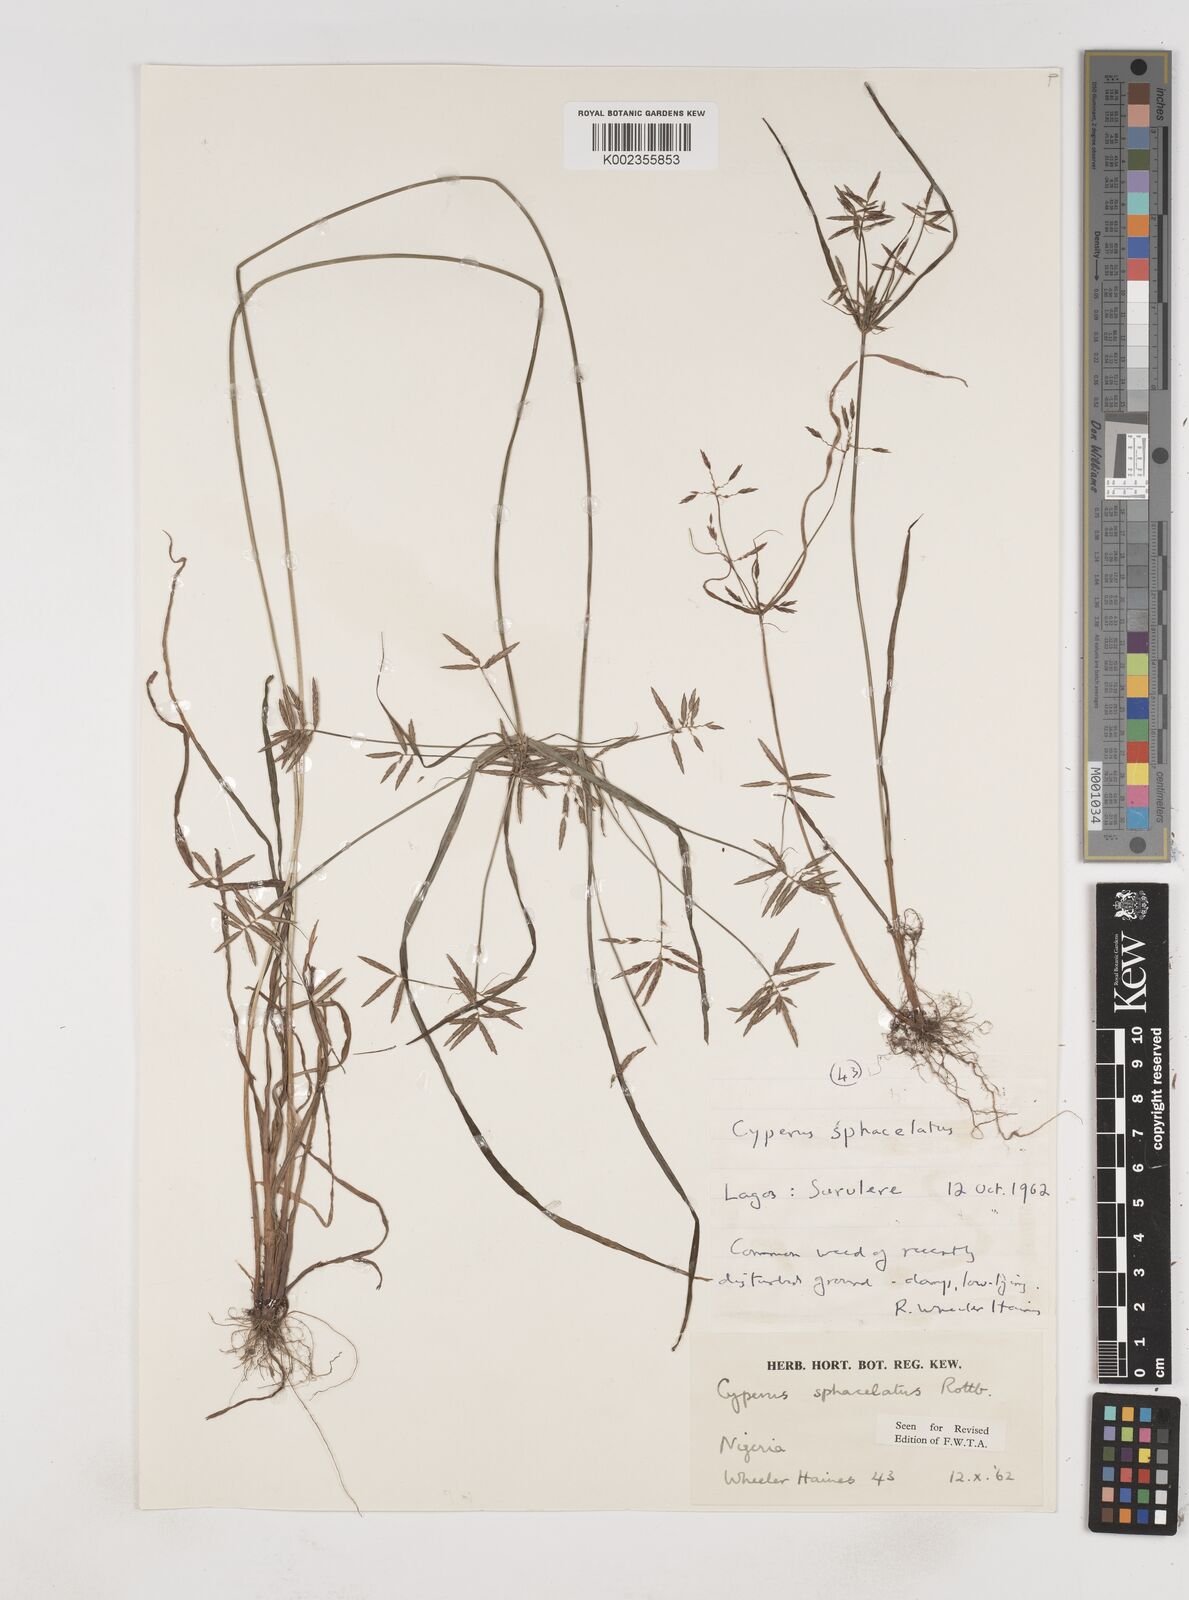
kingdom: Plantae
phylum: Tracheophyta
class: Liliopsida
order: Poales
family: Cyperaceae
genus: Cyperus
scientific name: Cyperus sphacelatus
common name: Roadside flatsedge
